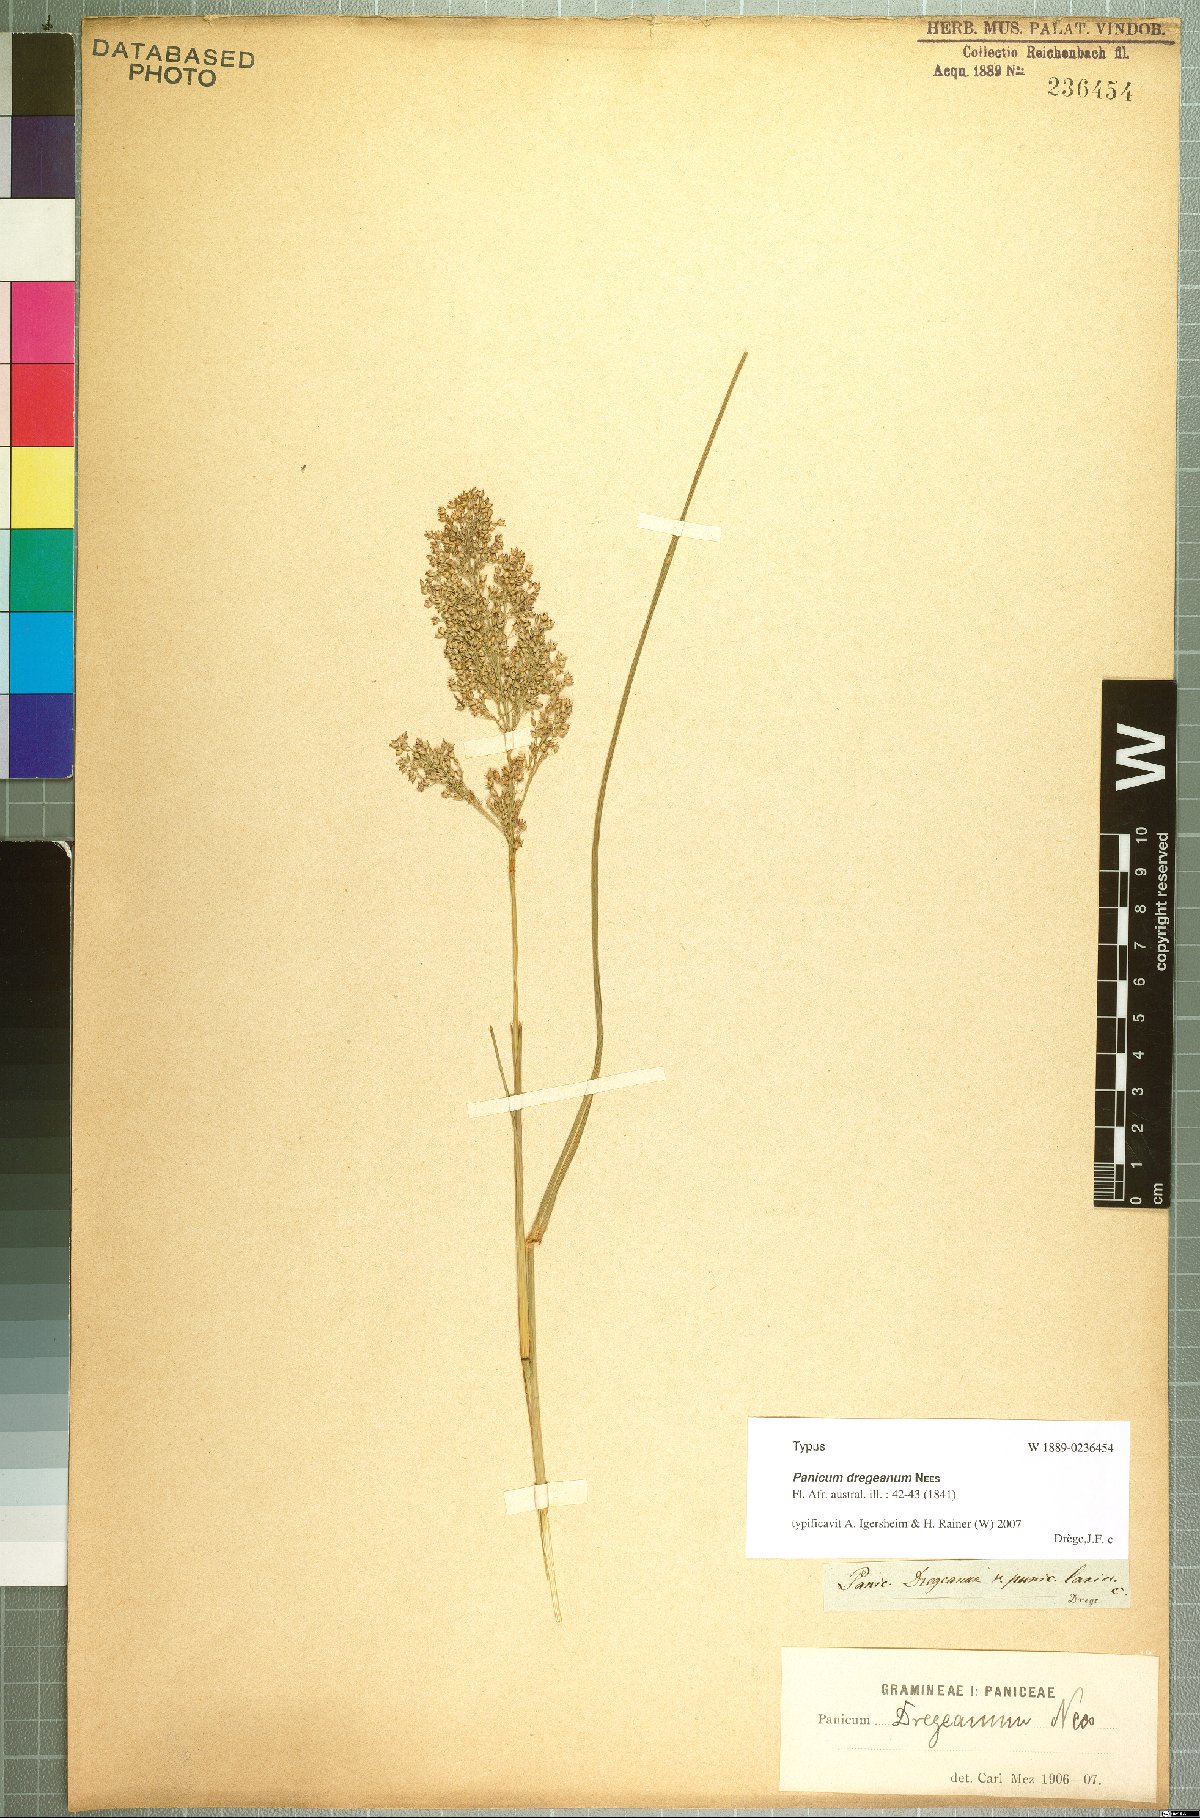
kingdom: Plantae
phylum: Tracheophyta
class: Liliopsida
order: Poales
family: Poaceae
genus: Panicum
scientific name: Panicum dregeanum
